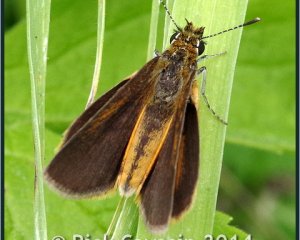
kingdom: Animalia
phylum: Arthropoda
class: Insecta
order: Lepidoptera
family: Hesperiidae
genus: Ancyloxypha
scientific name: Ancyloxypha numitor
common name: Least Skipper
